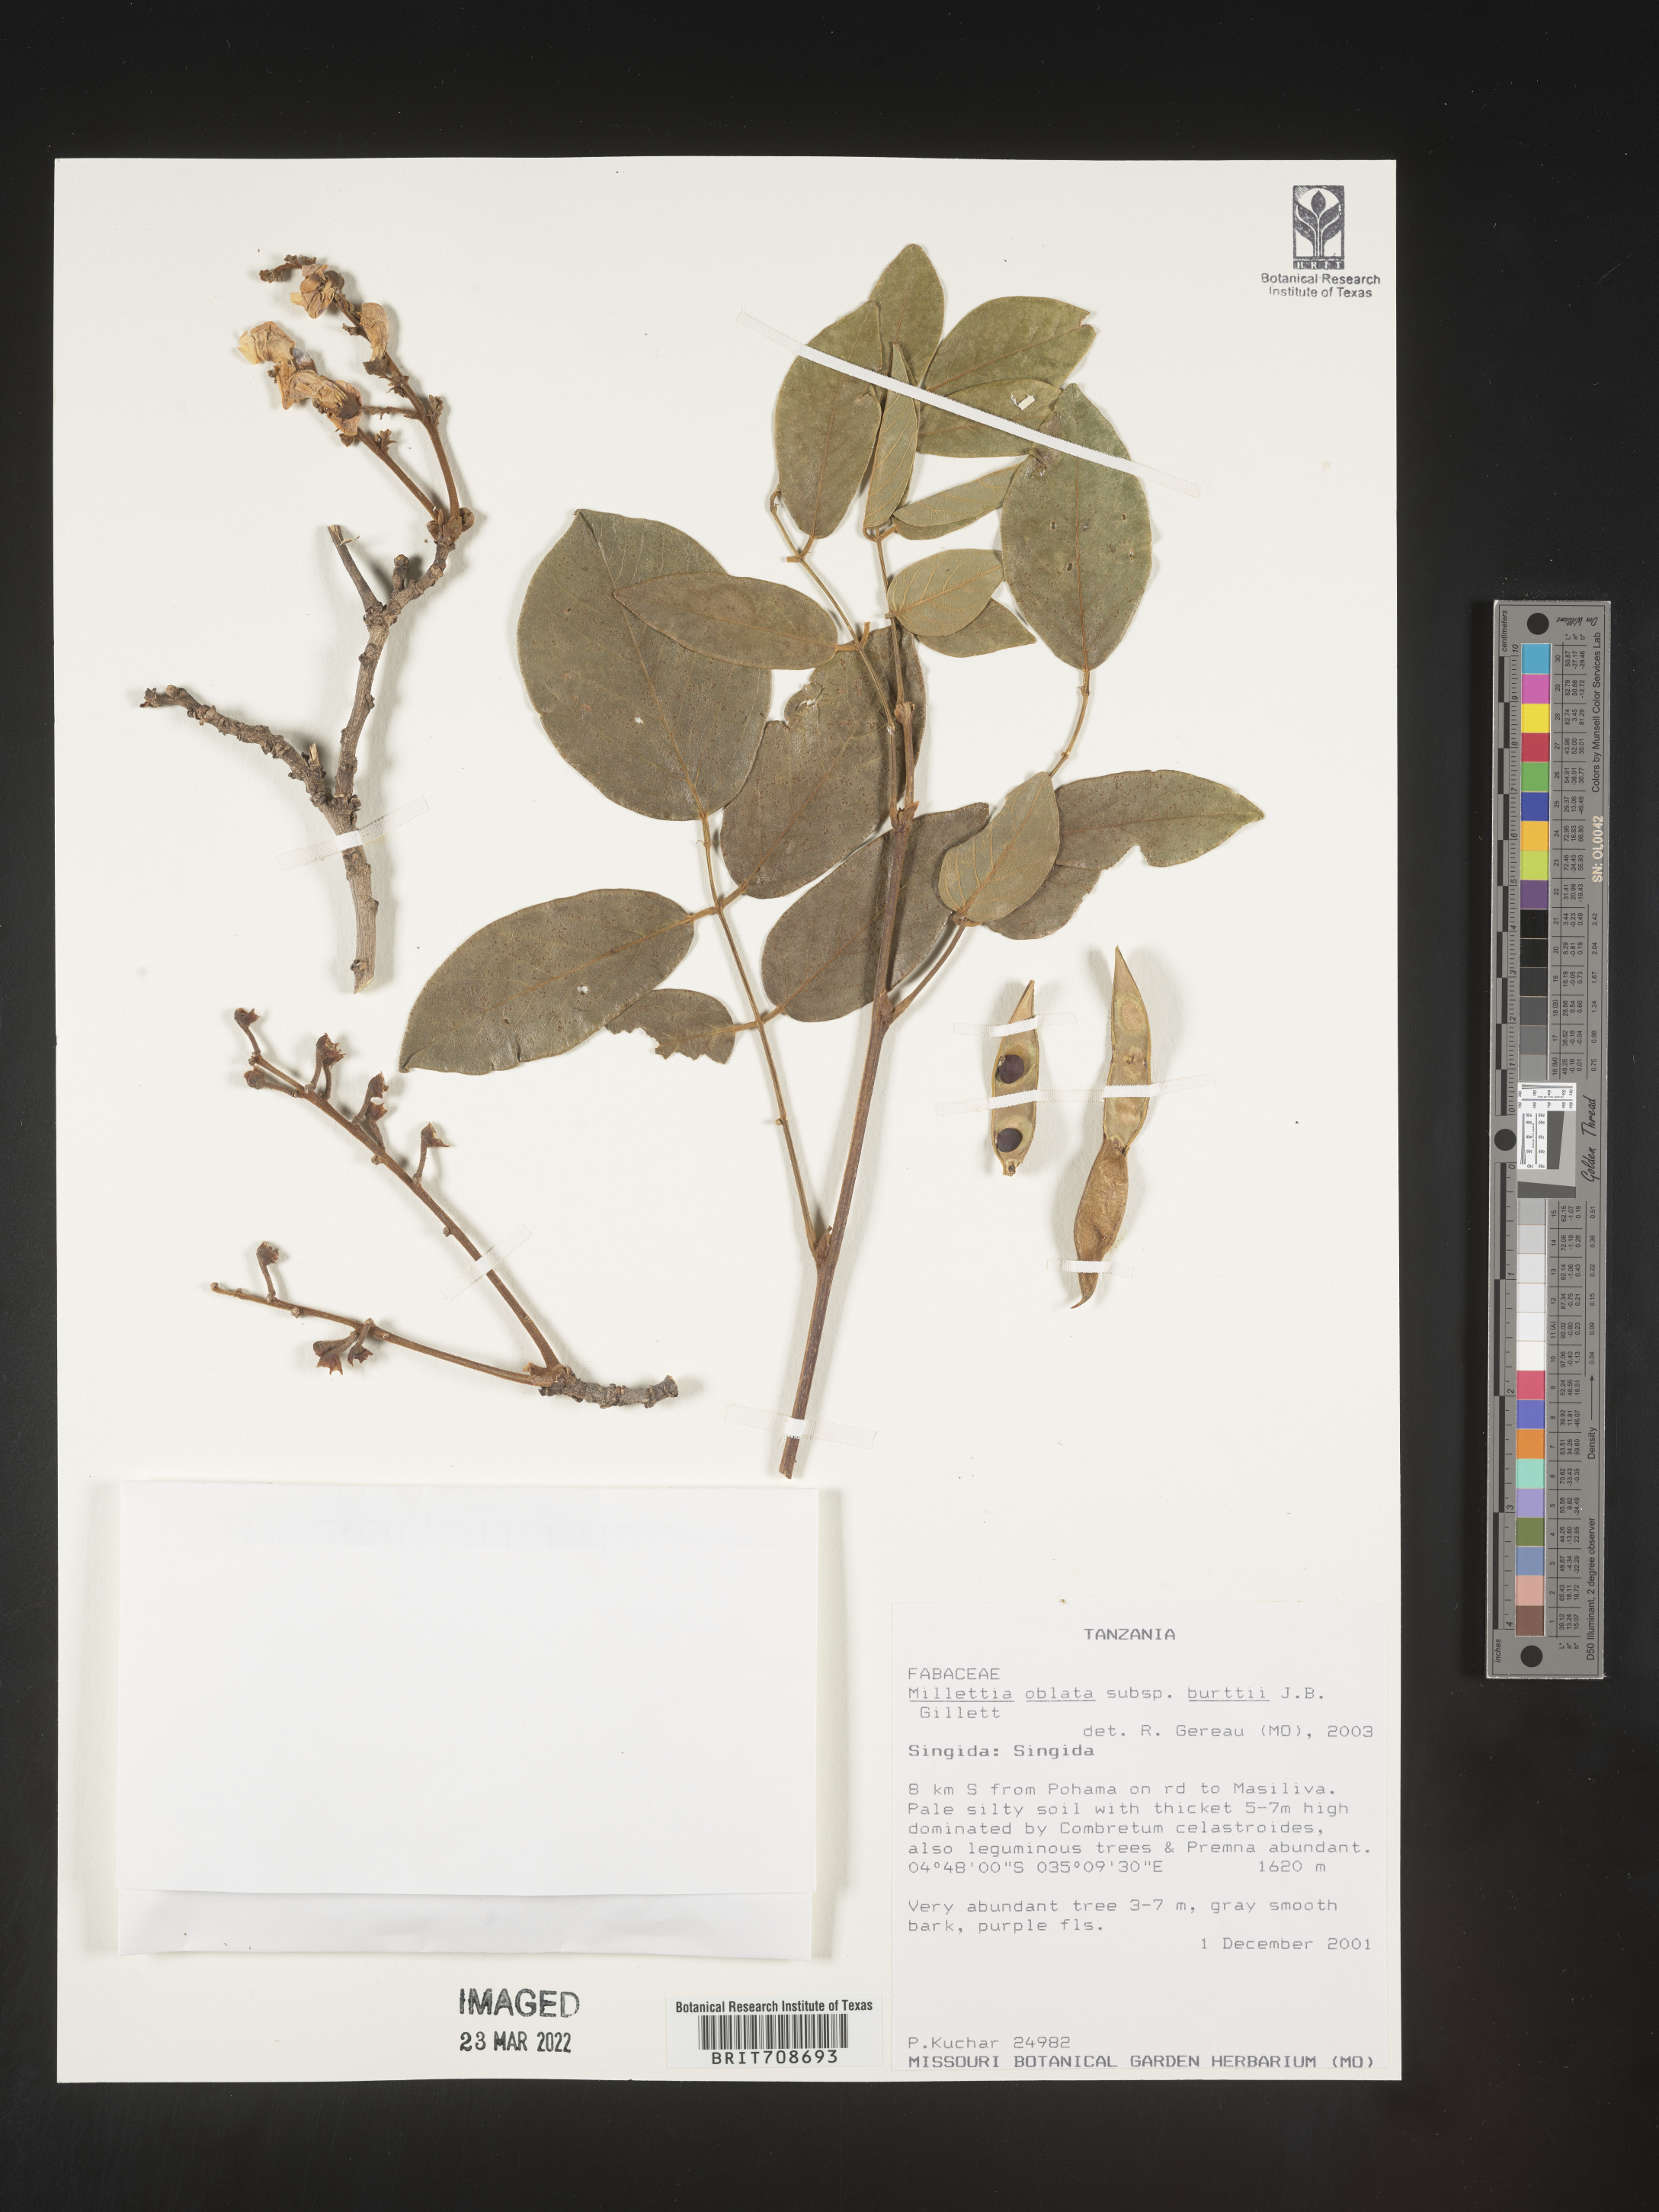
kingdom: Plantae
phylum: Tracheophyta
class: Magnoliopsida
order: Fabales
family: Fabaceae
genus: Millettia
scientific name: Millettia
